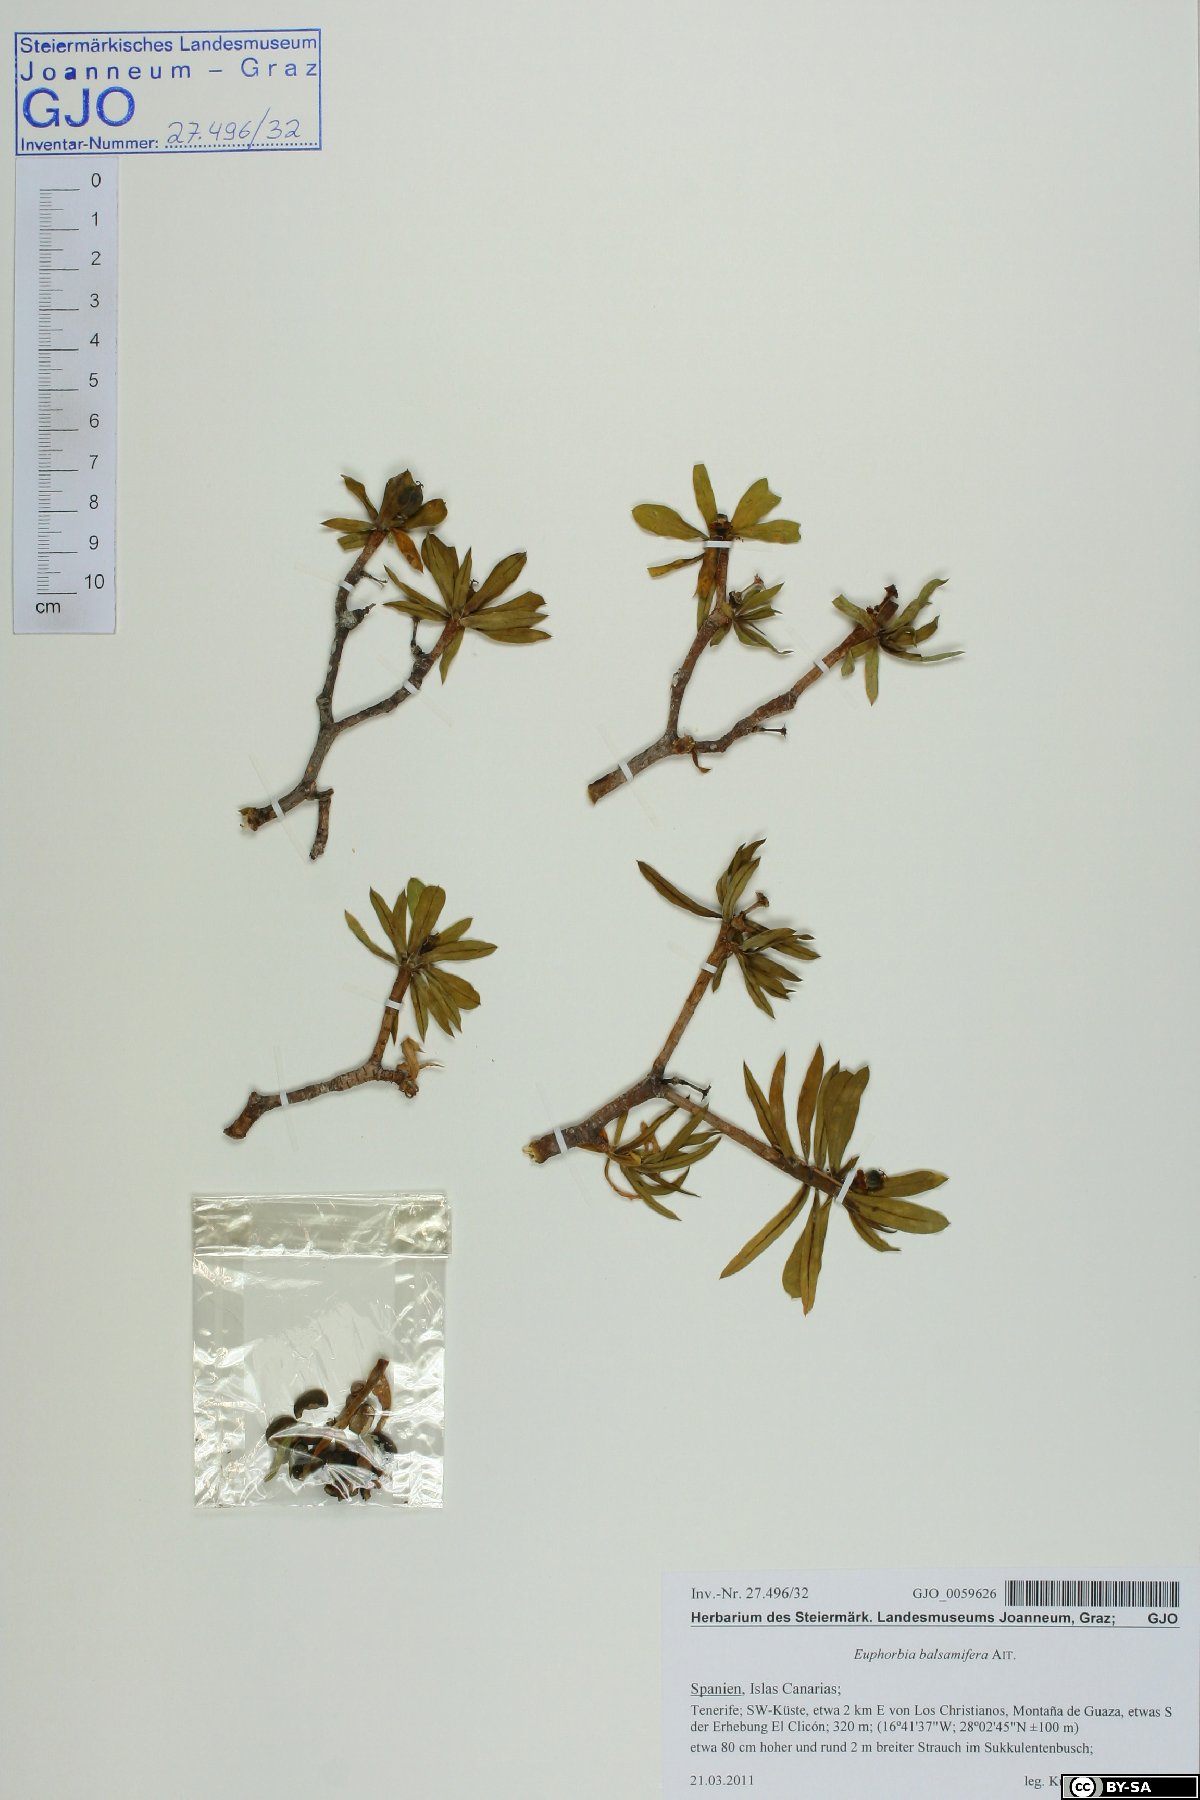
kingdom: Plantae
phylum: Tracheophyta
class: Magnoliopsida
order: Malpighiales
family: Euphorbiaceae
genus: Euphorbia
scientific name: Euphorbia balsamifera
